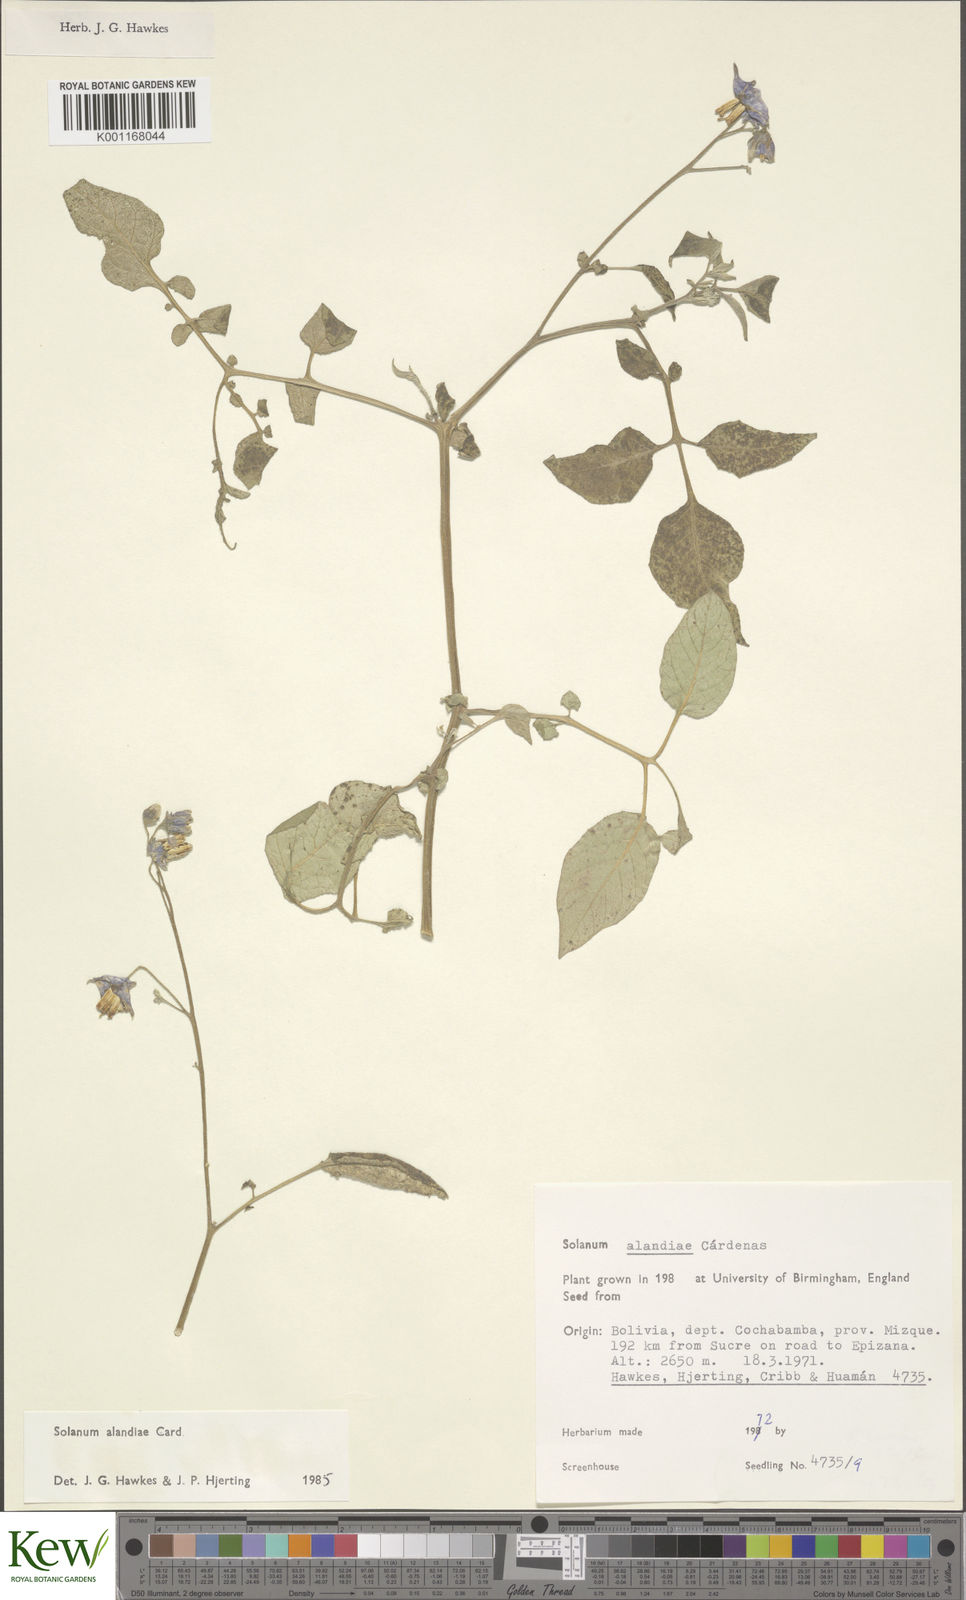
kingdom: Plantae
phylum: Tracheophyta
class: Magnoliopsida
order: Solanales
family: Solanaceae
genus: Solanum
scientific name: Solanum
